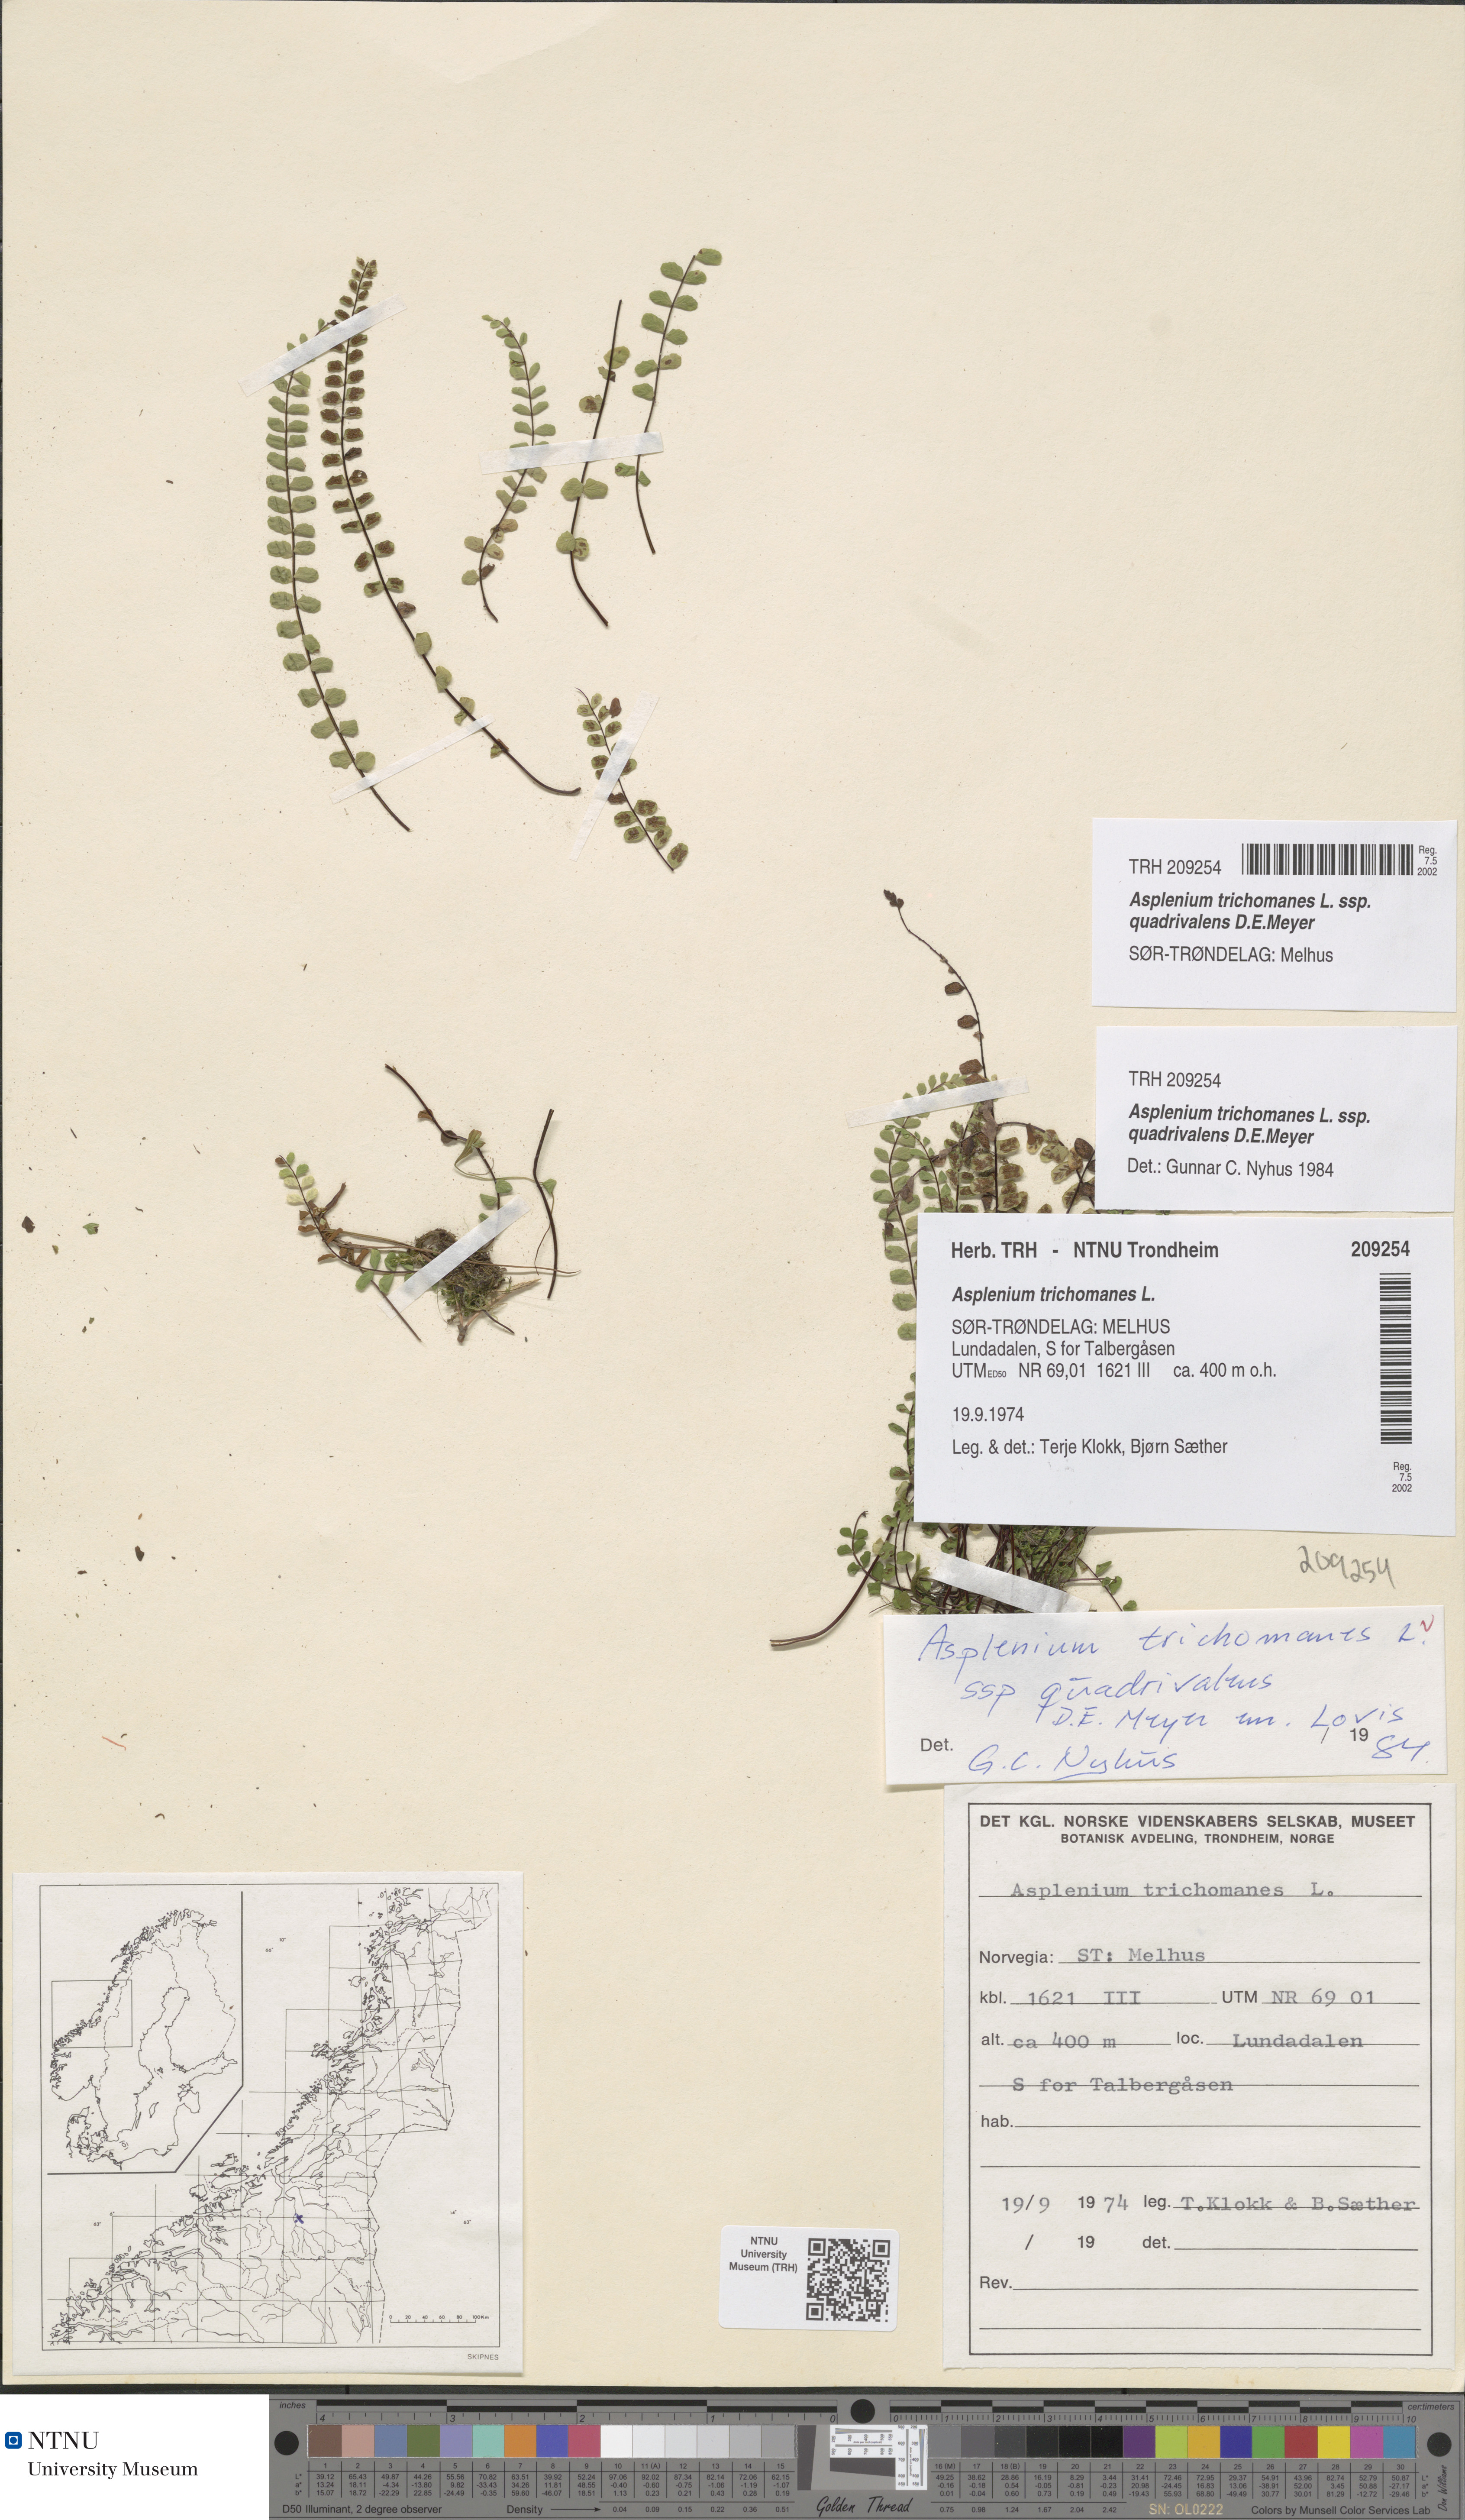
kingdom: Plantae
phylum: Tracheophyta
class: Polypodiopsida
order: Polypodiales
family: Aspleniaceae
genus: Asplenium
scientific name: Asplenium quadrivalens
